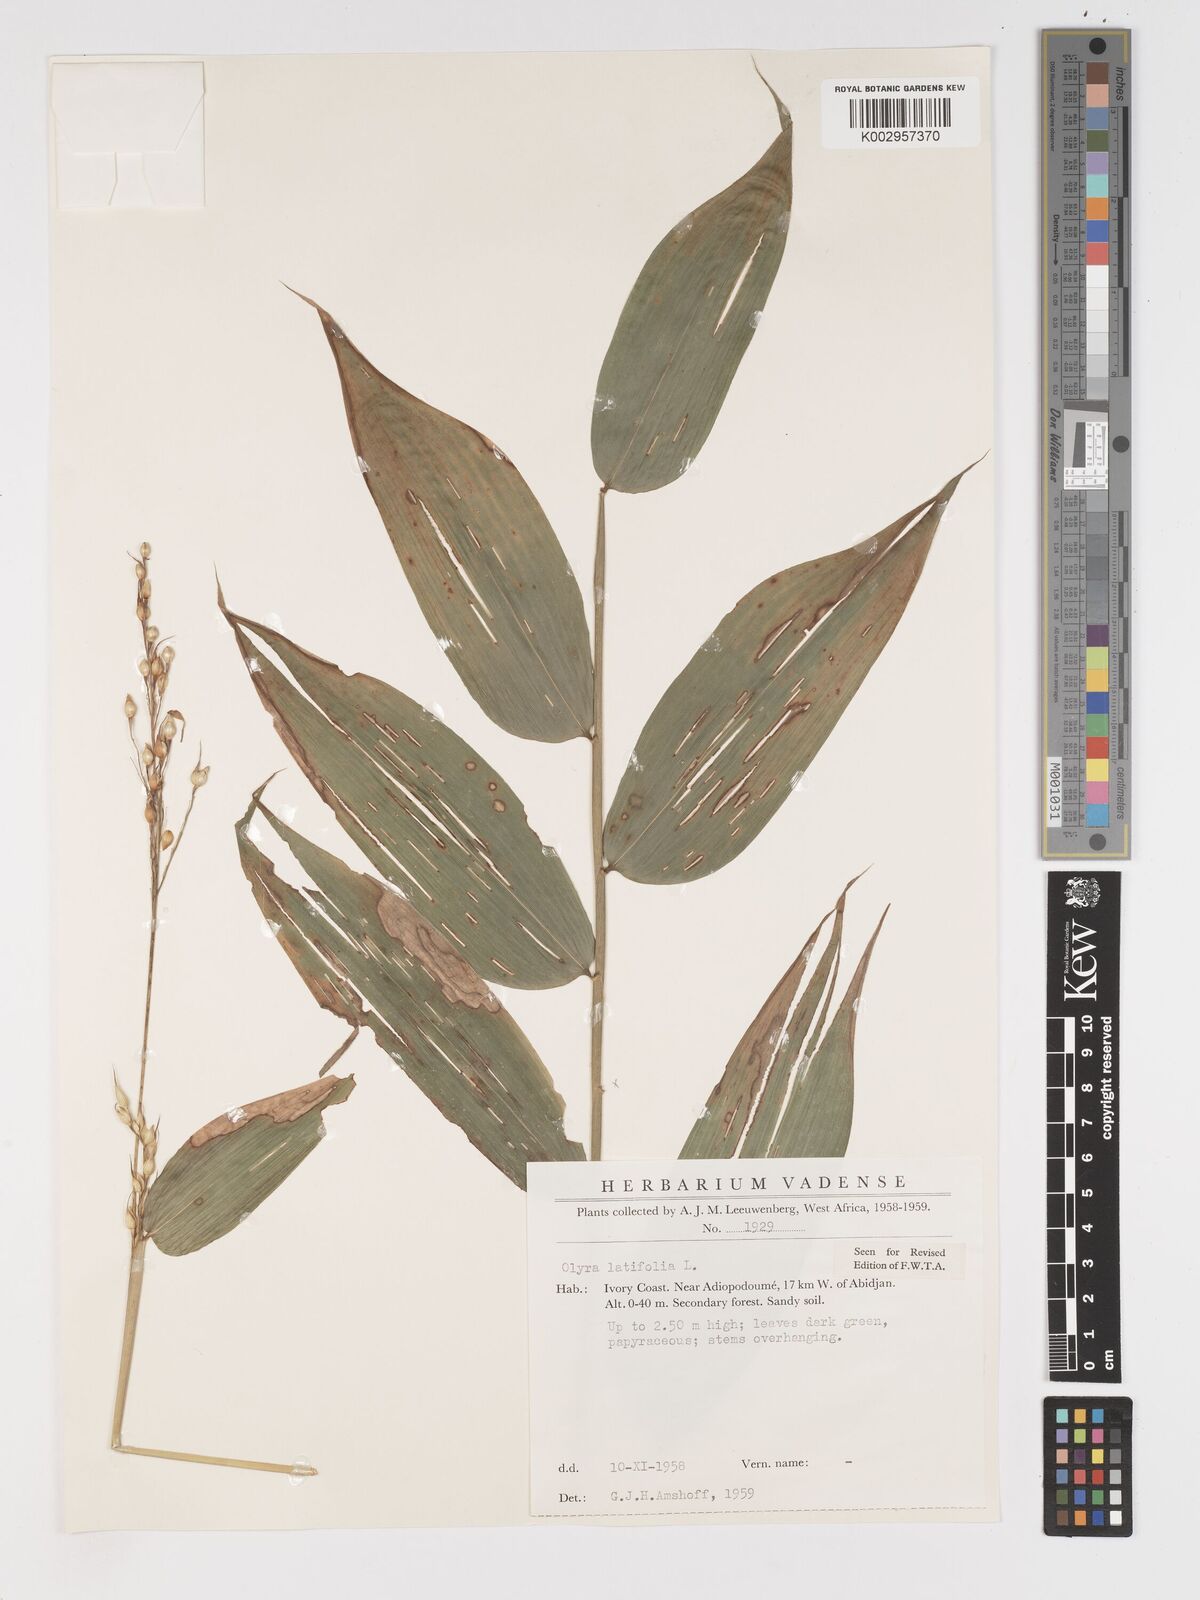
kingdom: Plantae
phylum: Tracheophyta
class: Liliopsida
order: Poales
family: Poaceae
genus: Olyra
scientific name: Olyra latifolia
